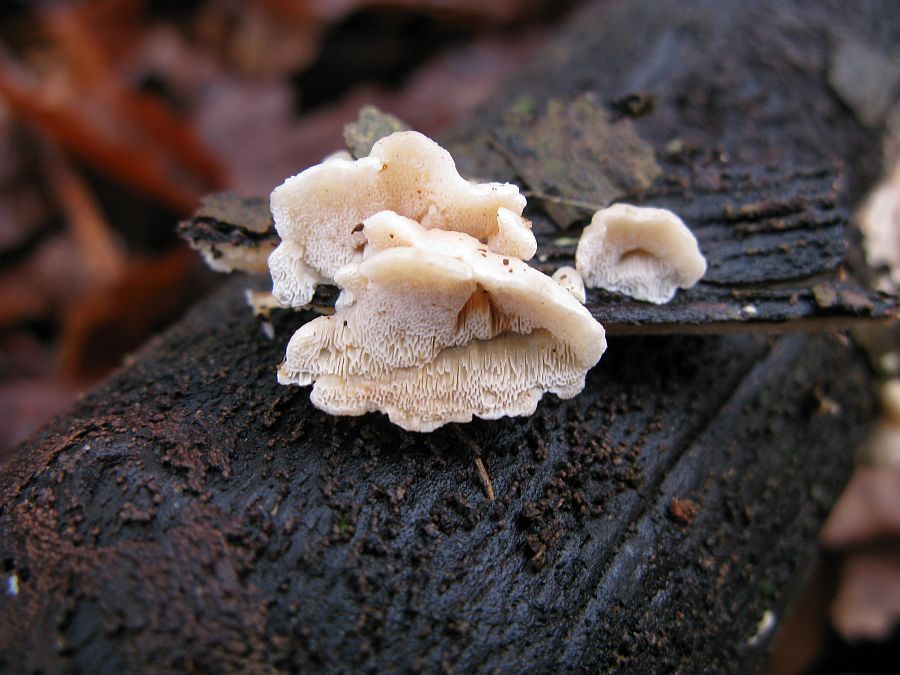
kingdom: Fungi
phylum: Basidiomycota
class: Agaricomycetes
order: Polyporales
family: Steccherinaceae
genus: Antrodiella
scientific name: Antrodiella pallescens
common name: tønder-elastikporesvamp
